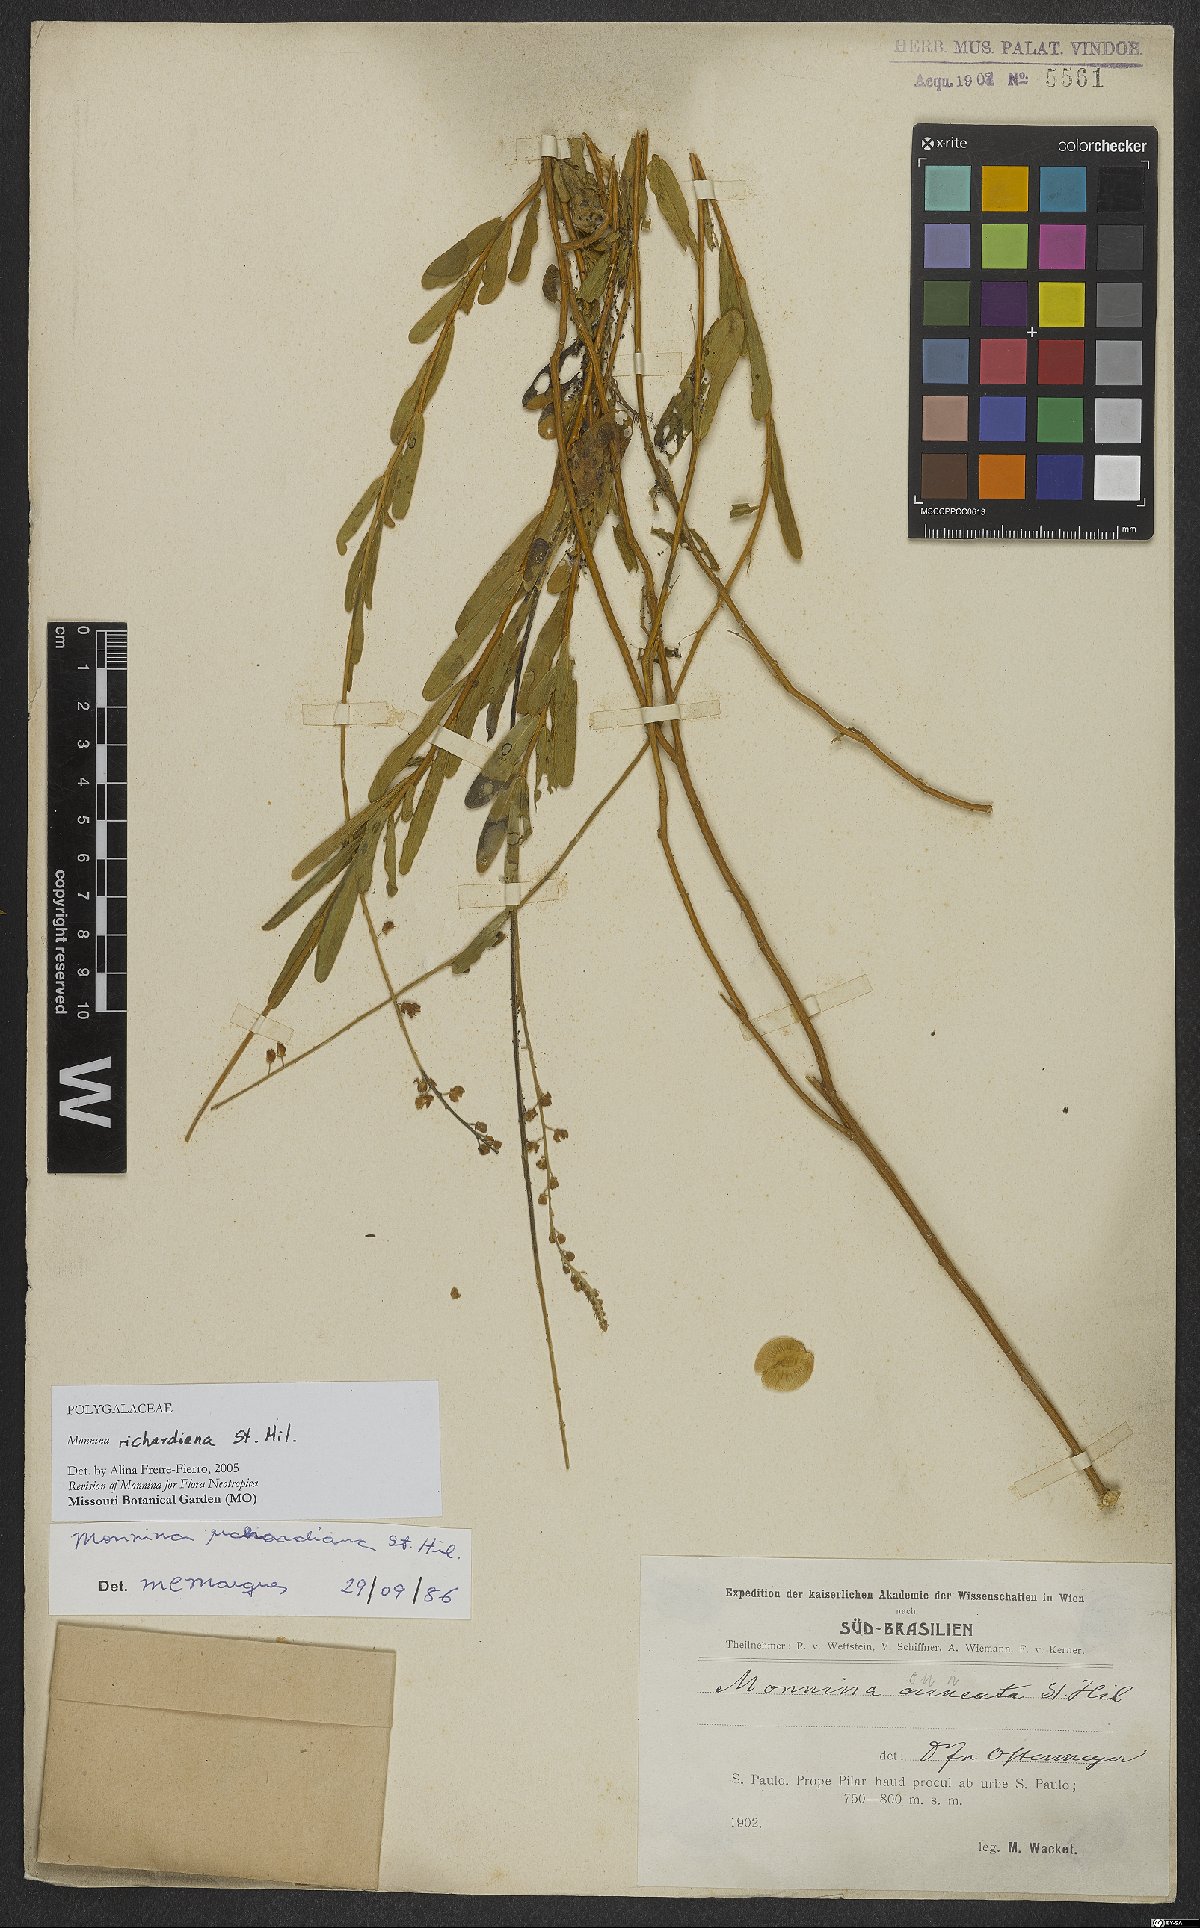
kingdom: Plantae
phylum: Tracheophyta
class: Magnoliopsida
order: Fabales
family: Polygalaceae
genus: Monnina
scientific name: Monnina richardiana
